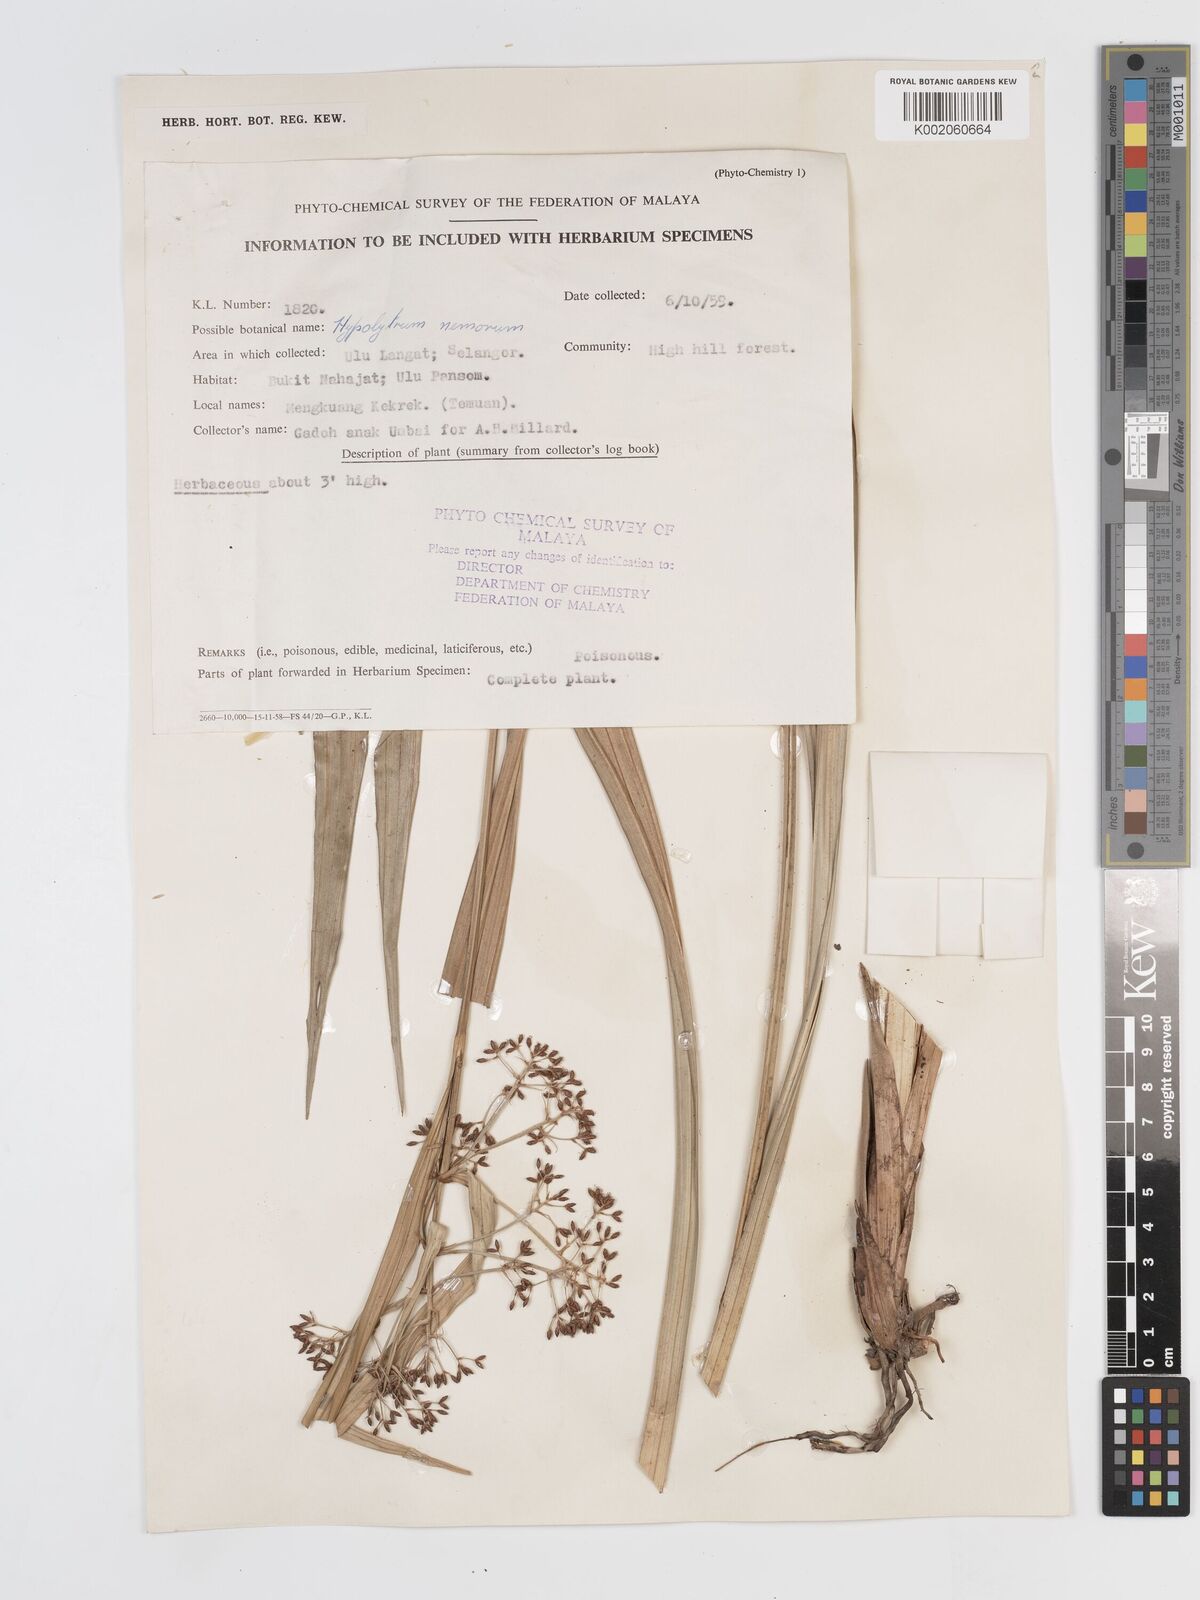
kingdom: Plantae
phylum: Tracheophyta
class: Liliopsida
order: Poales
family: Cyperaceae
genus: Hypolytrum
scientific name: Hypolytrum nemorum
